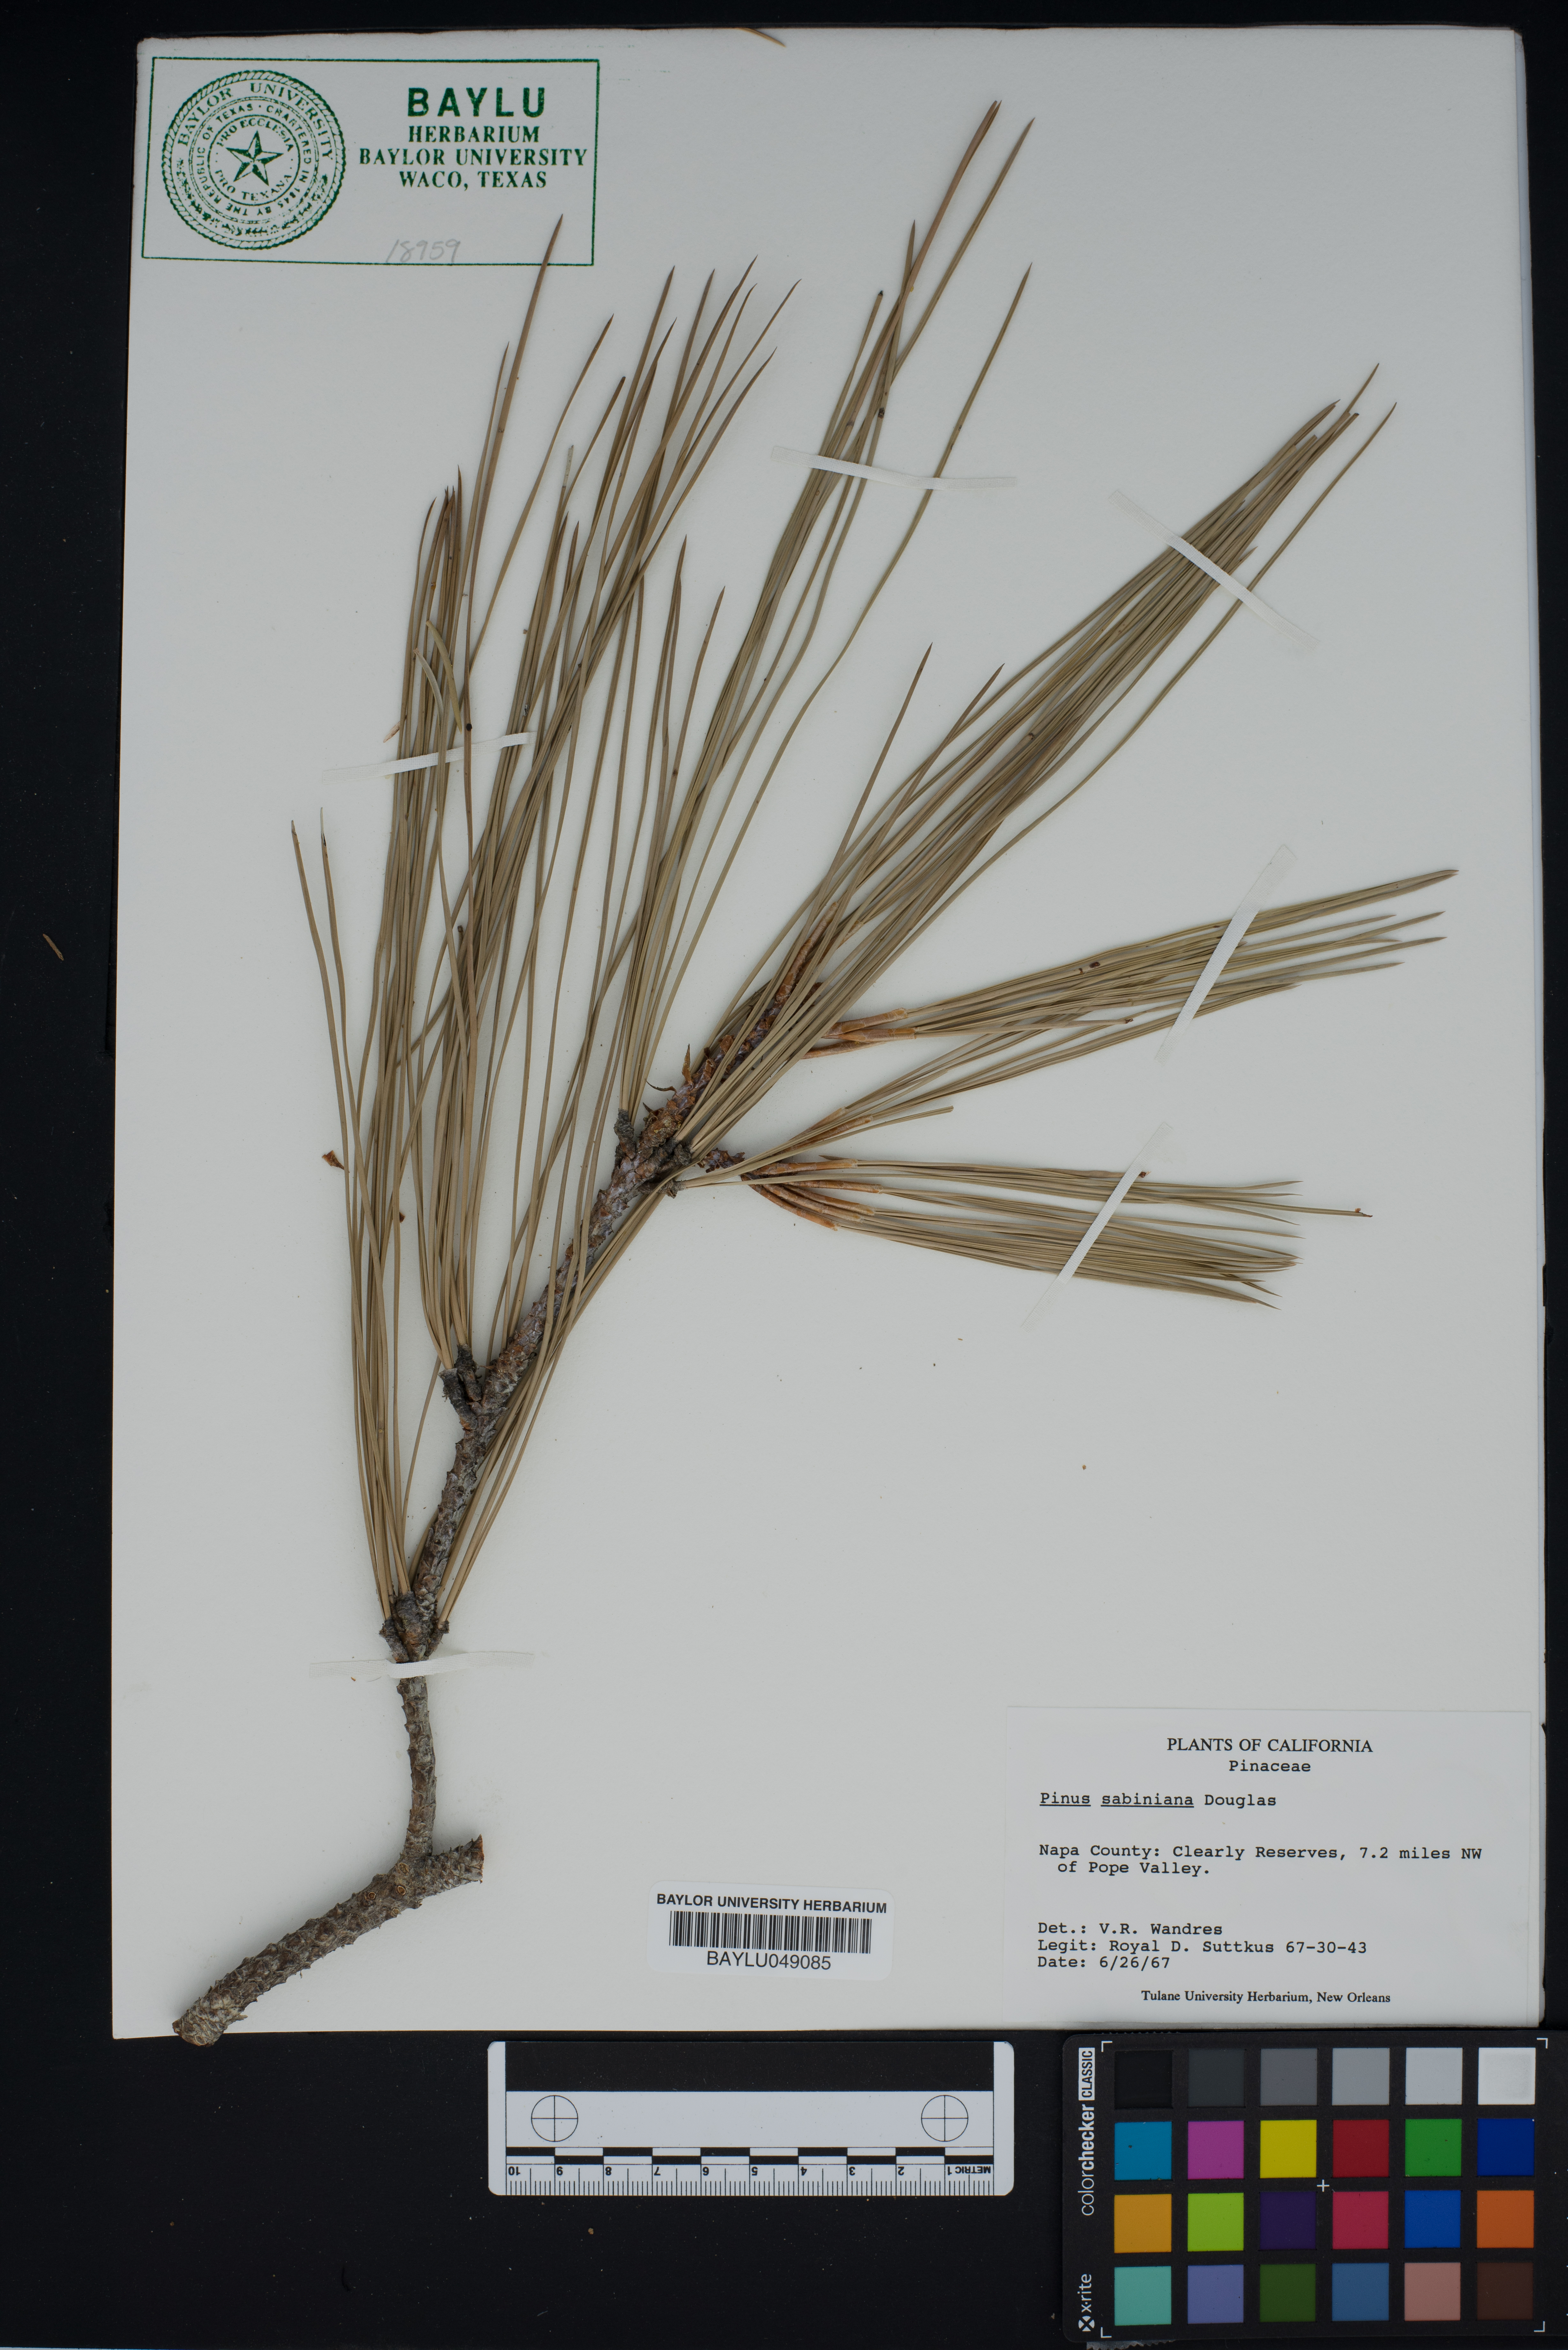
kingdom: Plantae
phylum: Tracheophyta
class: Pinopsida
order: Pinales
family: Pinaceae
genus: Pinus
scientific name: Pinus sabiniana
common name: Bull pine
